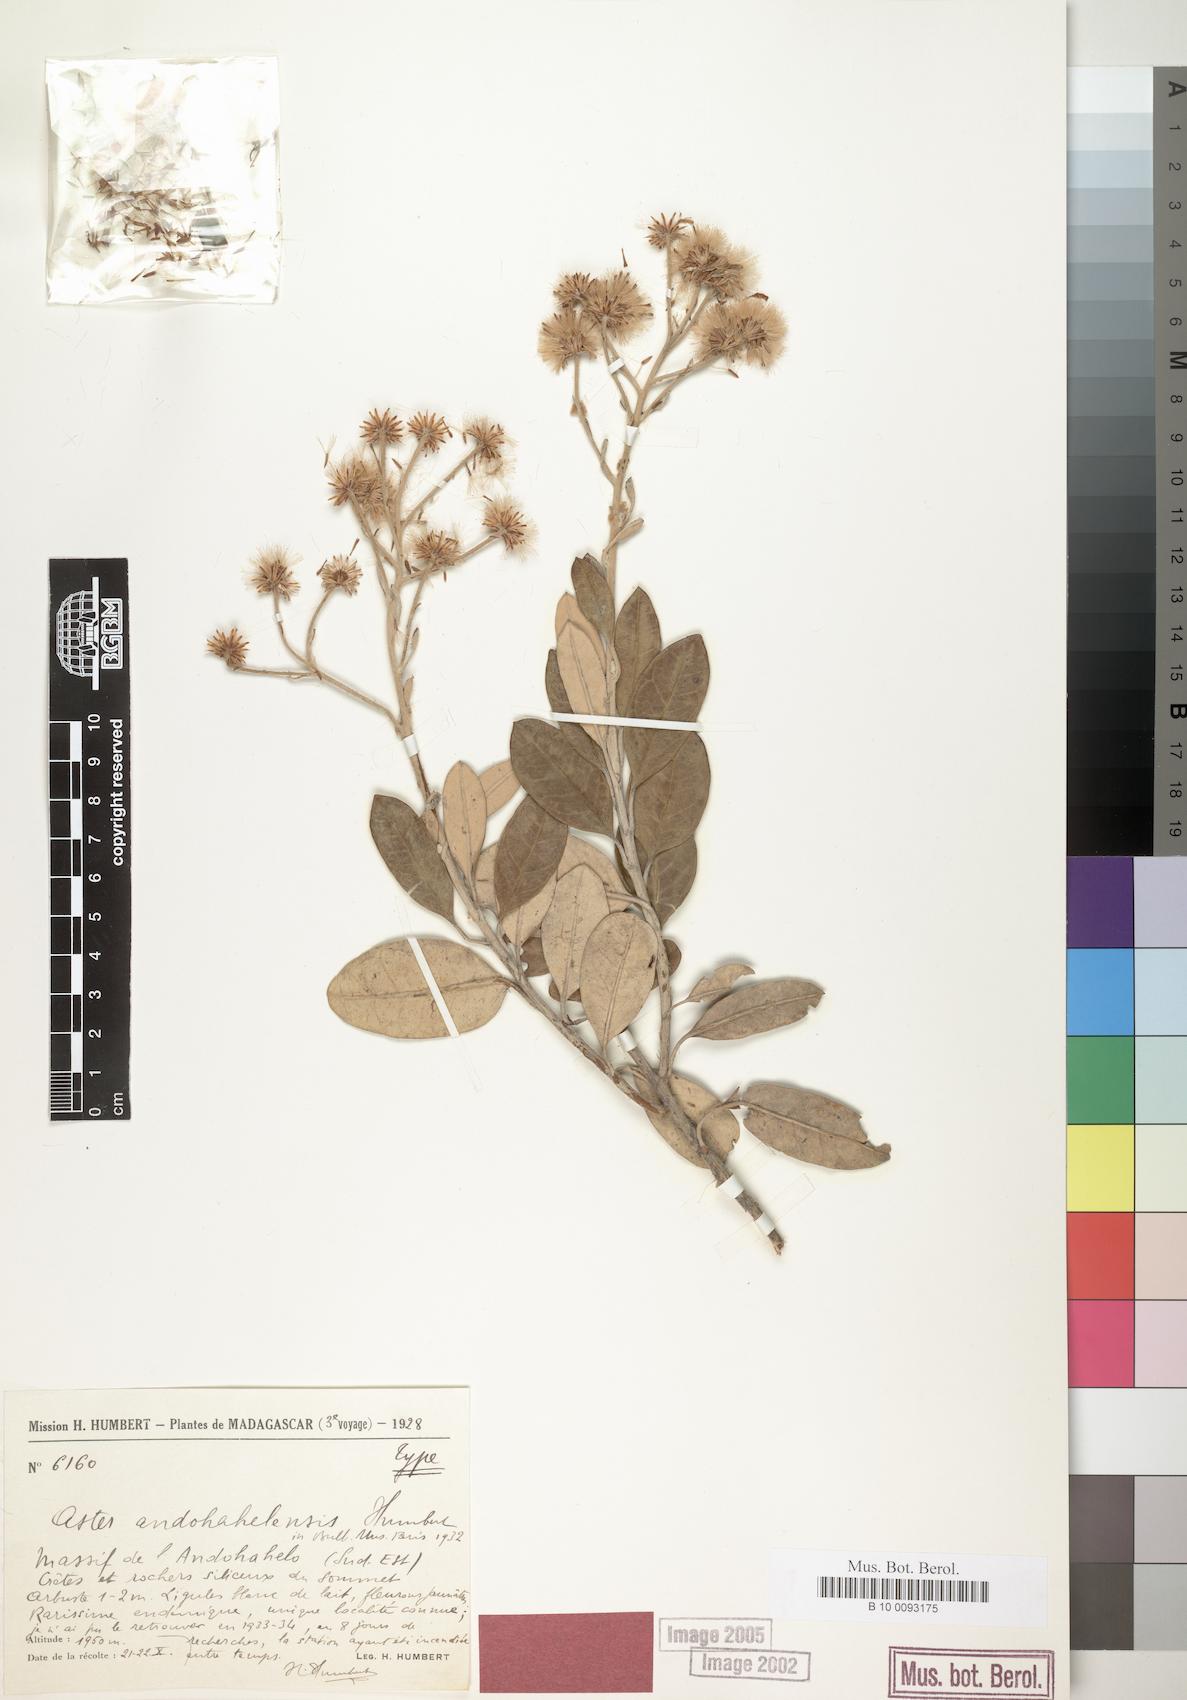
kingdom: Plantae
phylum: Tracheophyta
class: Magnoliopsida
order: Asterales
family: Asteraceae
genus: Madagaster
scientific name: Madagaster andohahelensis
